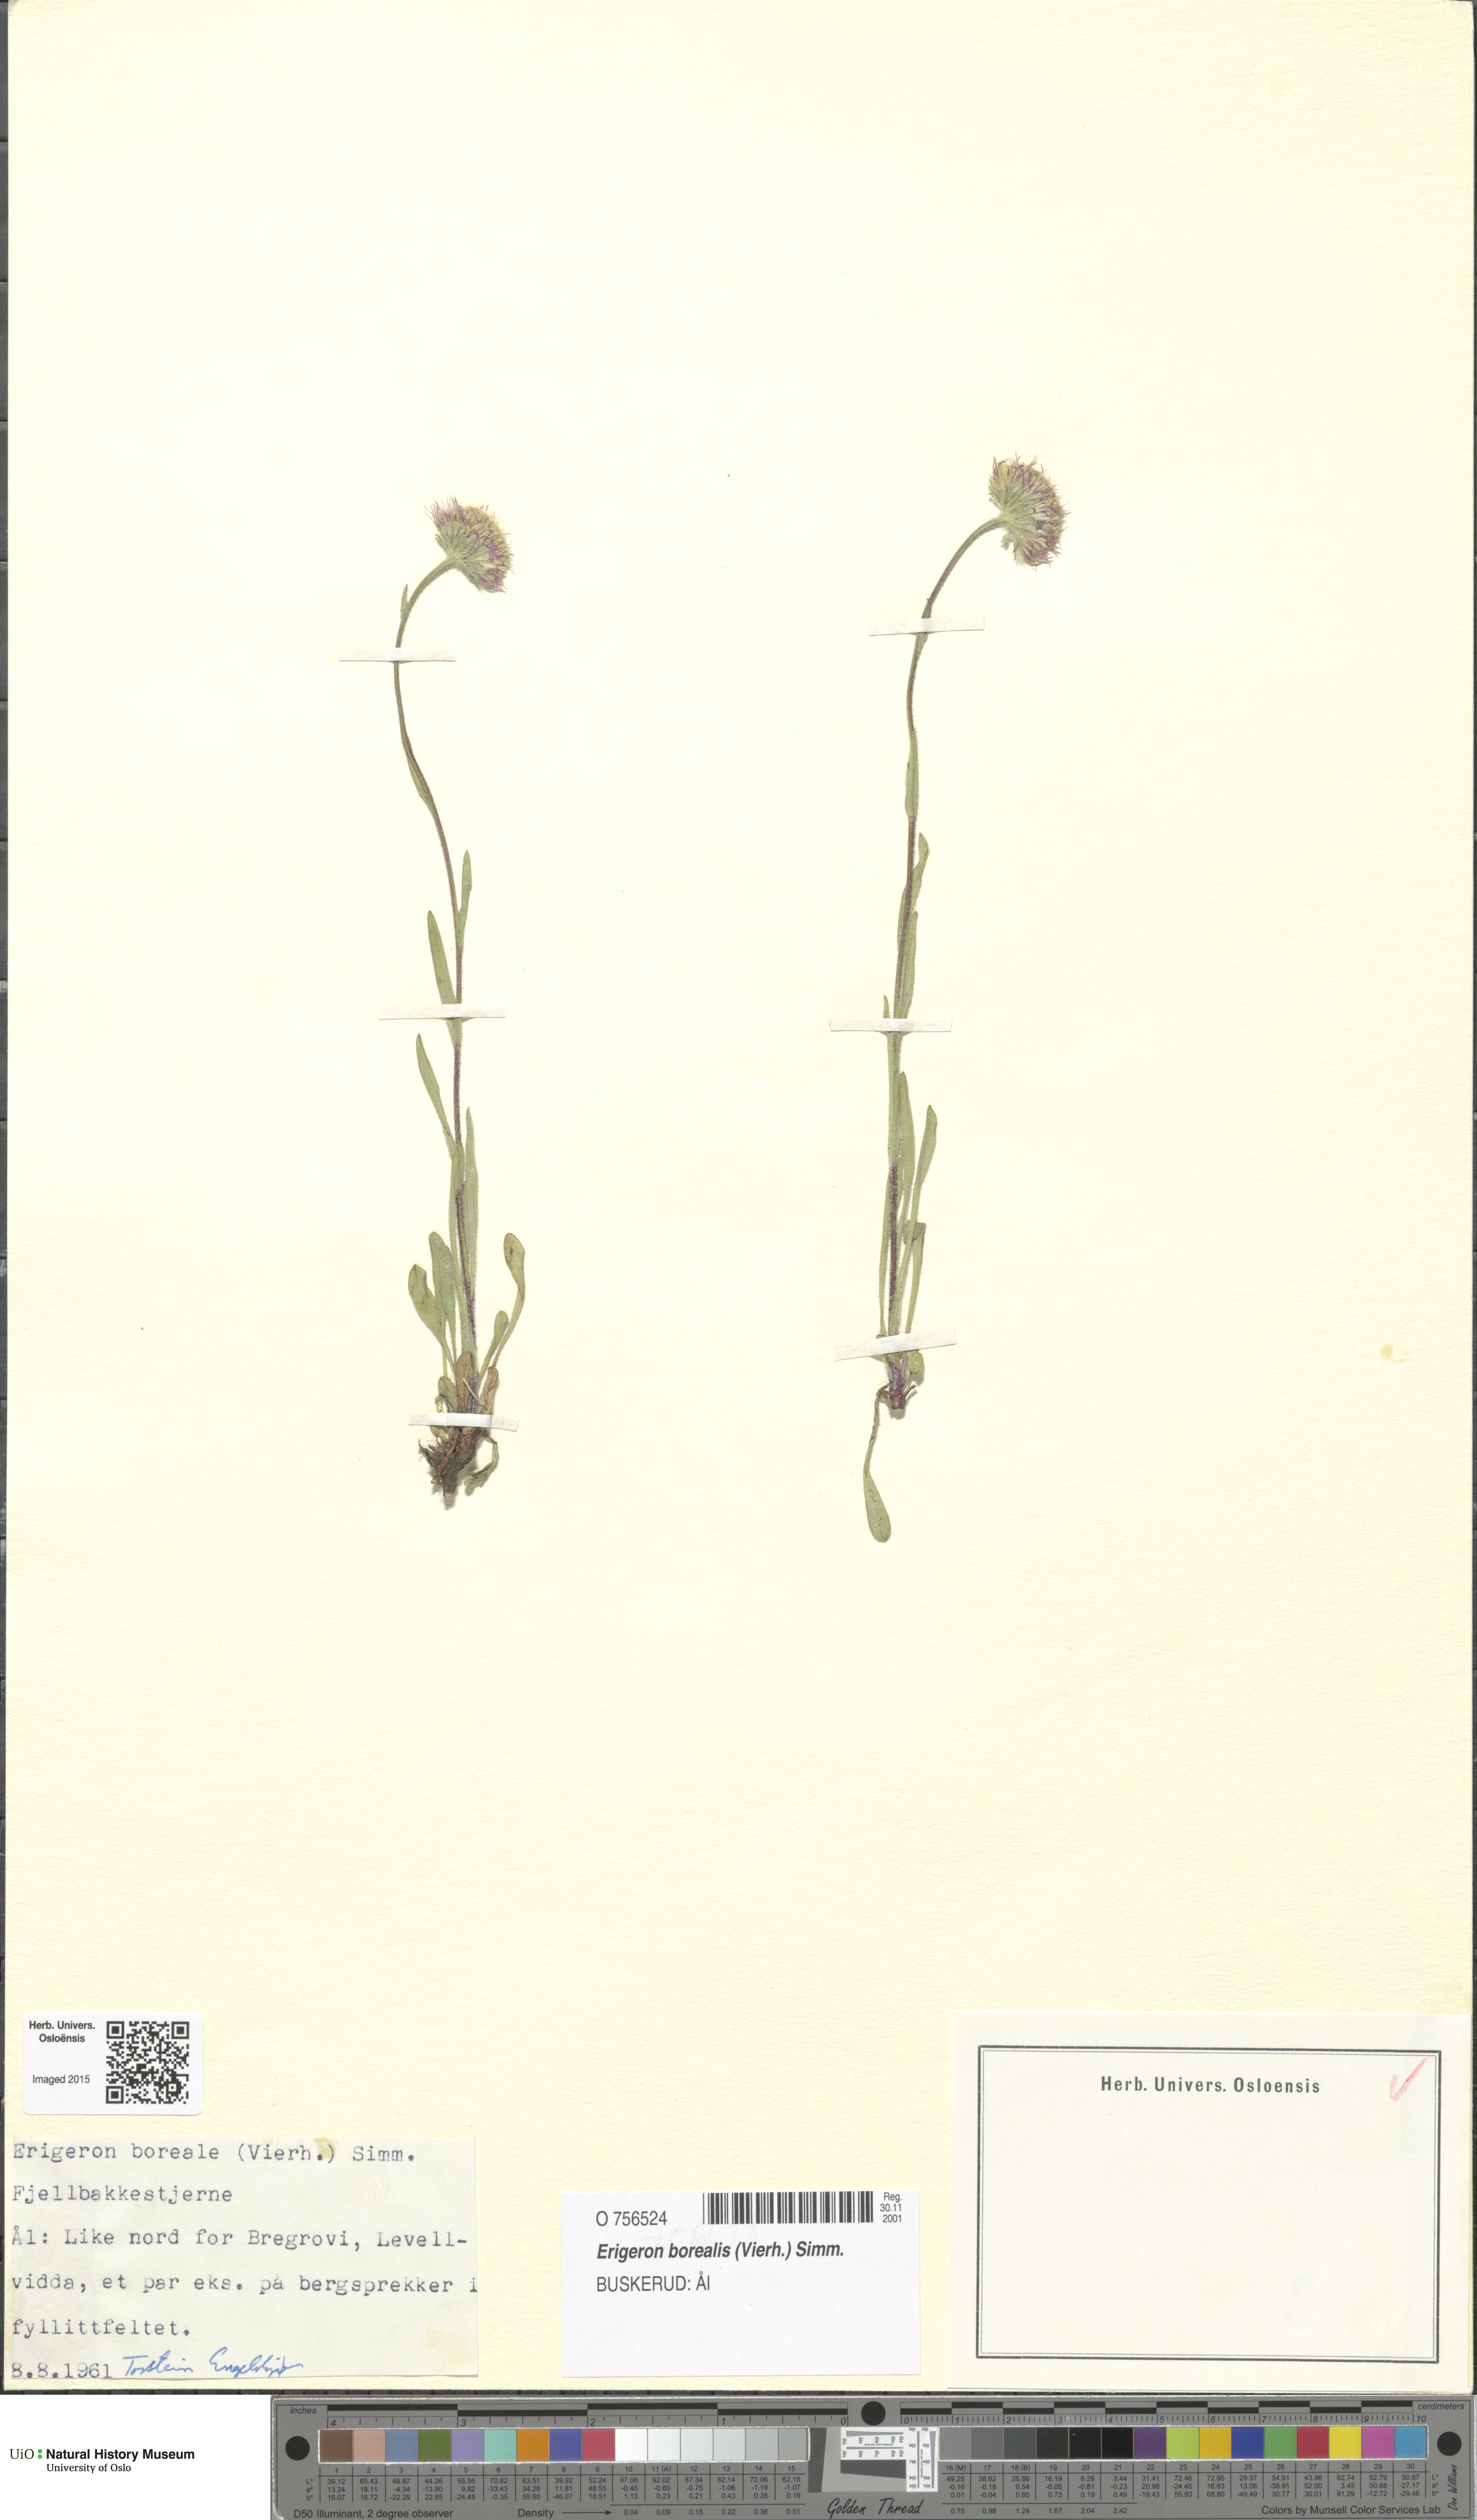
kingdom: Plantae
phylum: Tracheophyta
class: Magnoliopsida
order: Asterales
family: Asteraceae
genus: Erigeron
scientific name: Erigeron borealis
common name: Alpine fleabane
